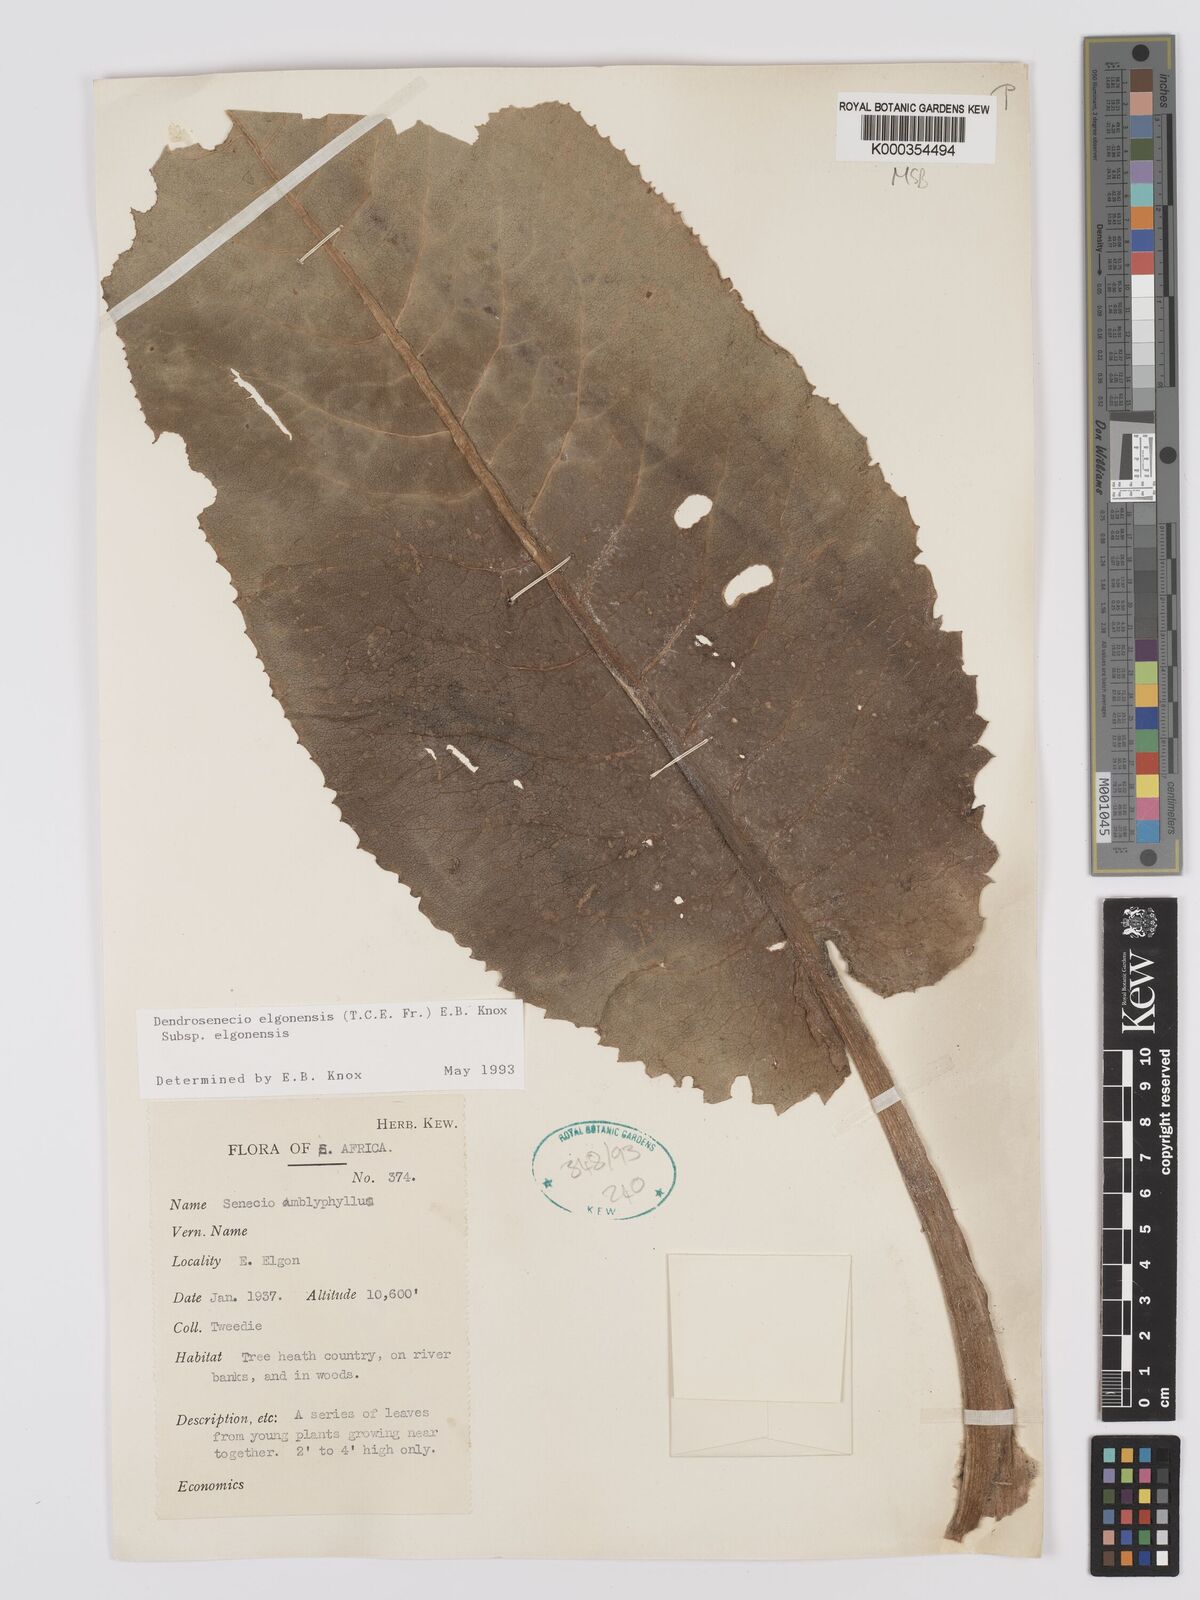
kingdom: Plantae
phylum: Tracheophyta
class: Magnoliopsida
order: Asterales
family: Asteraceae
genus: Dendrosenecio
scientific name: Dendrosenecio elgonensis
